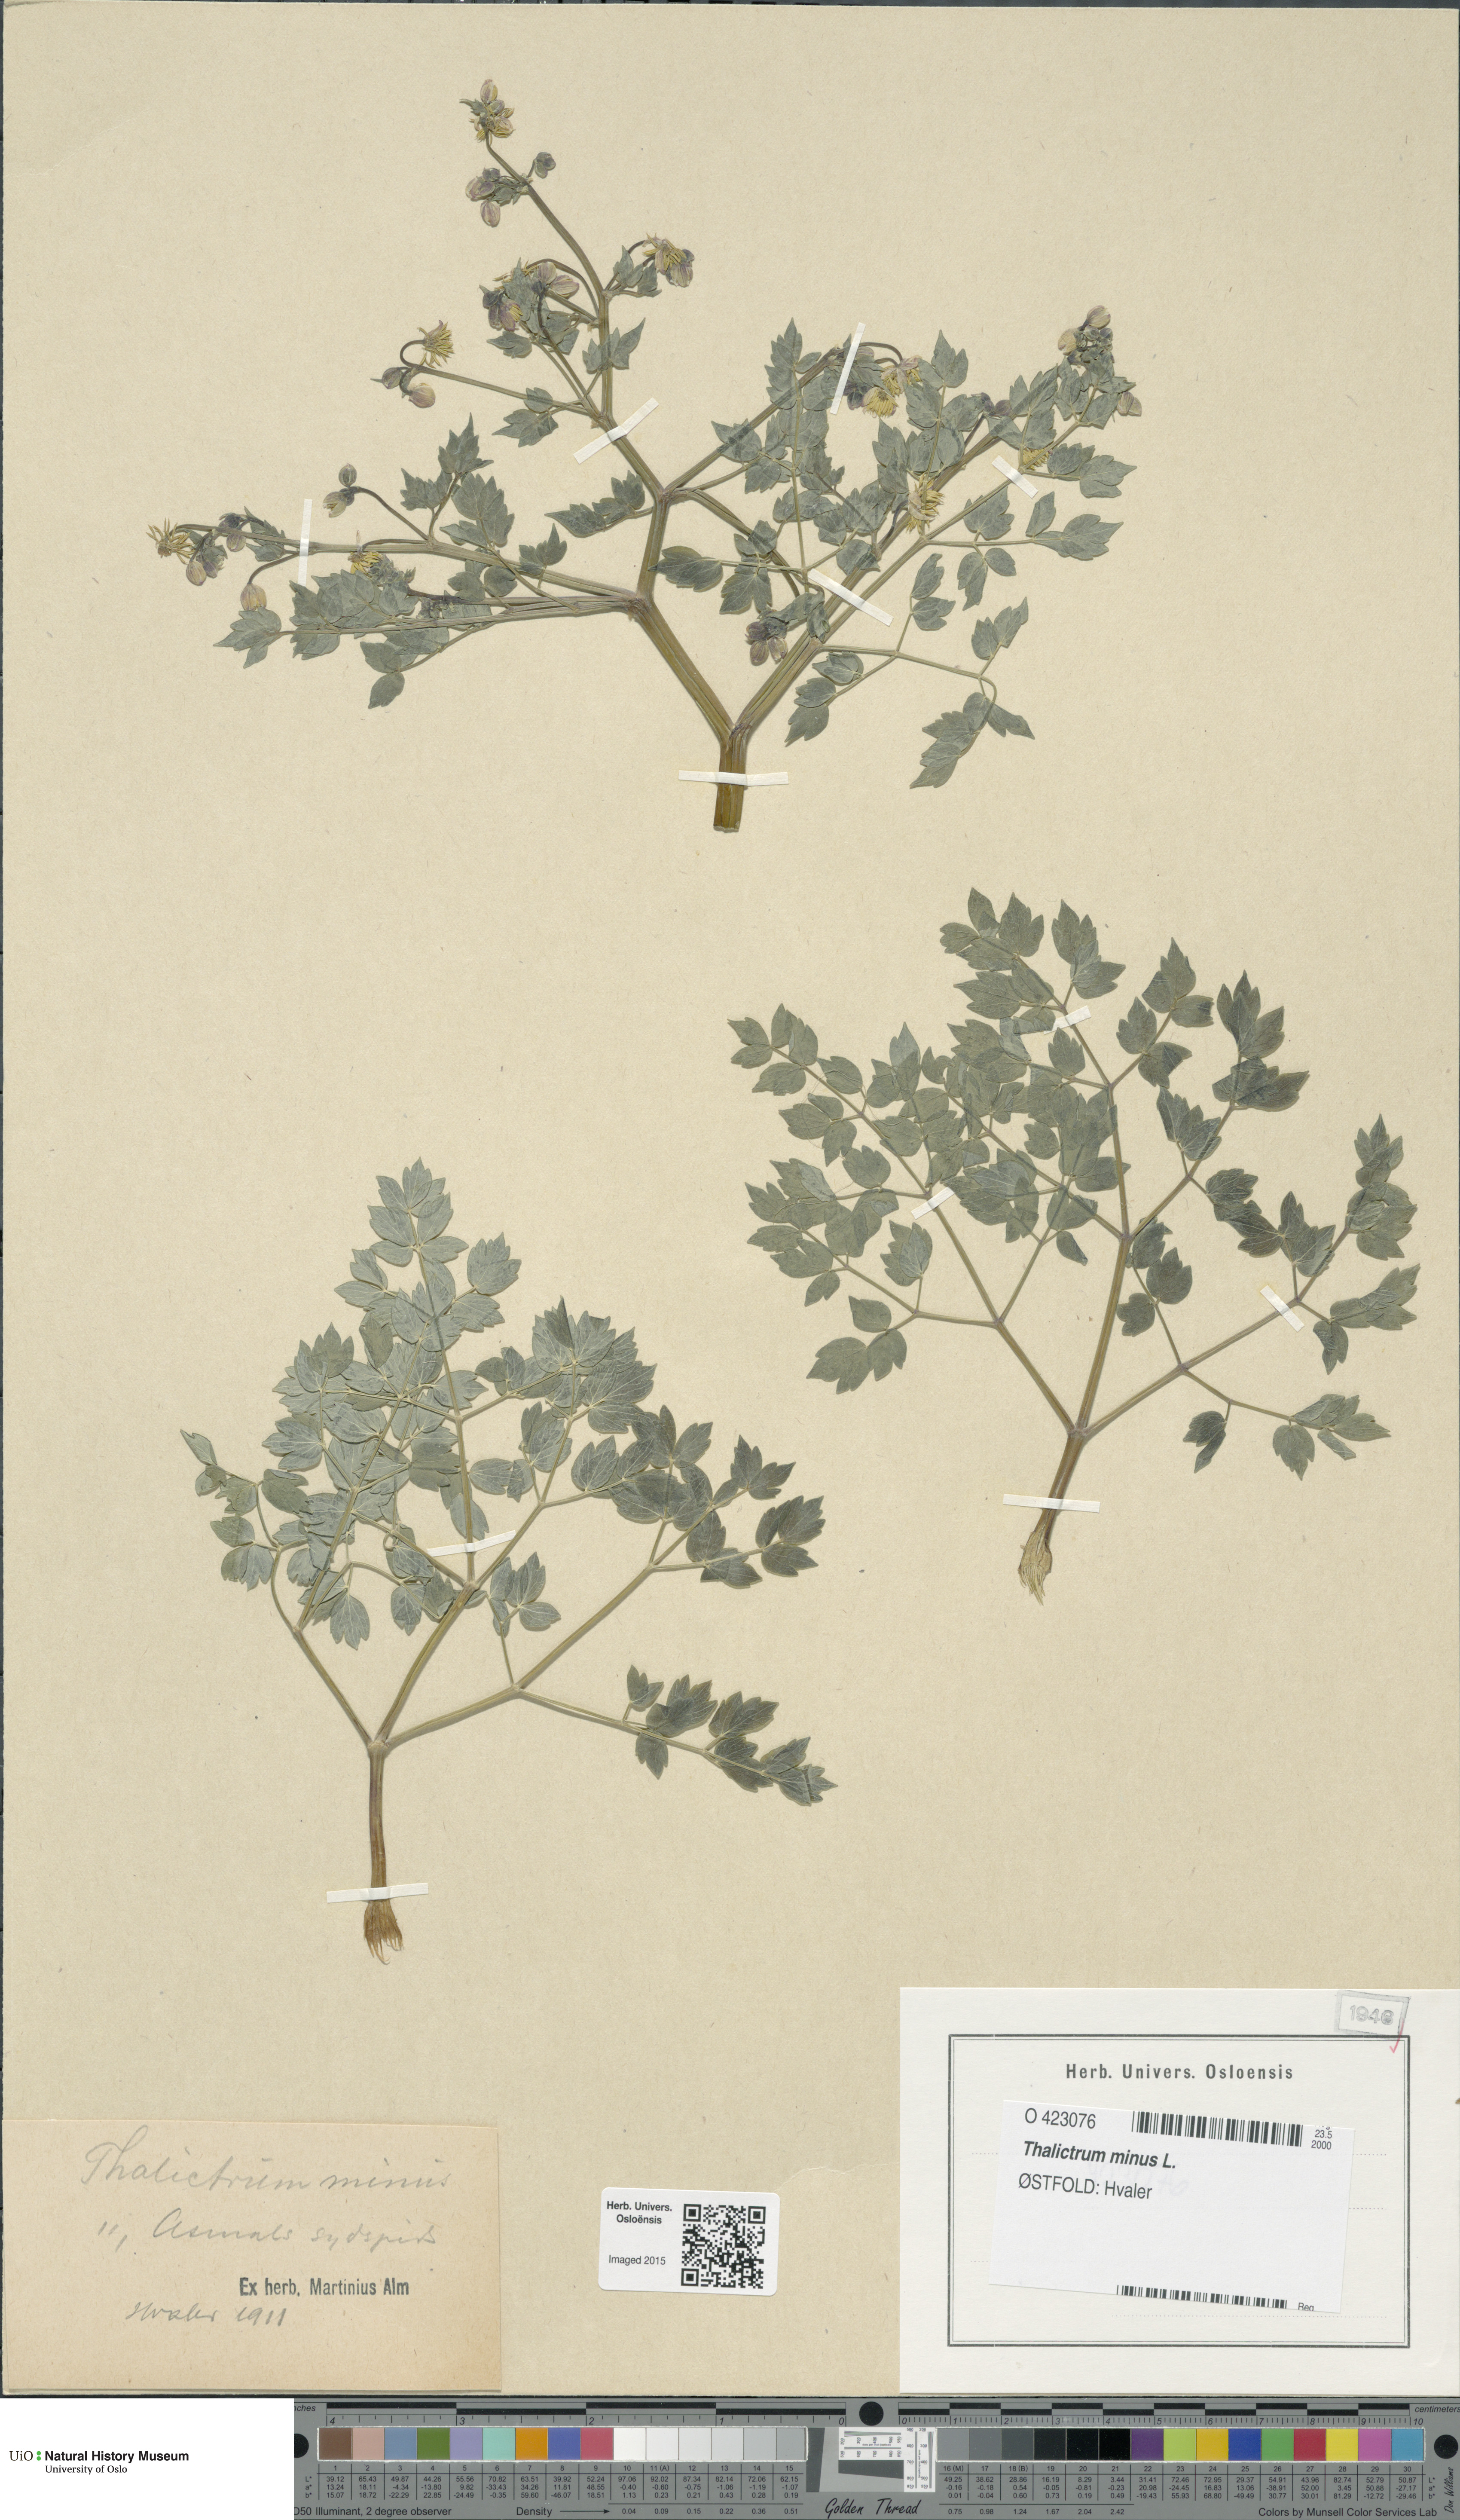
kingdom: Plantae
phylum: Tracheophyta
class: Magnoliopsida
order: Ranunculales
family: Ranunculaceae
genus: Thalictrum
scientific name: Thalictrum minus
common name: Lesser meadow-rue
